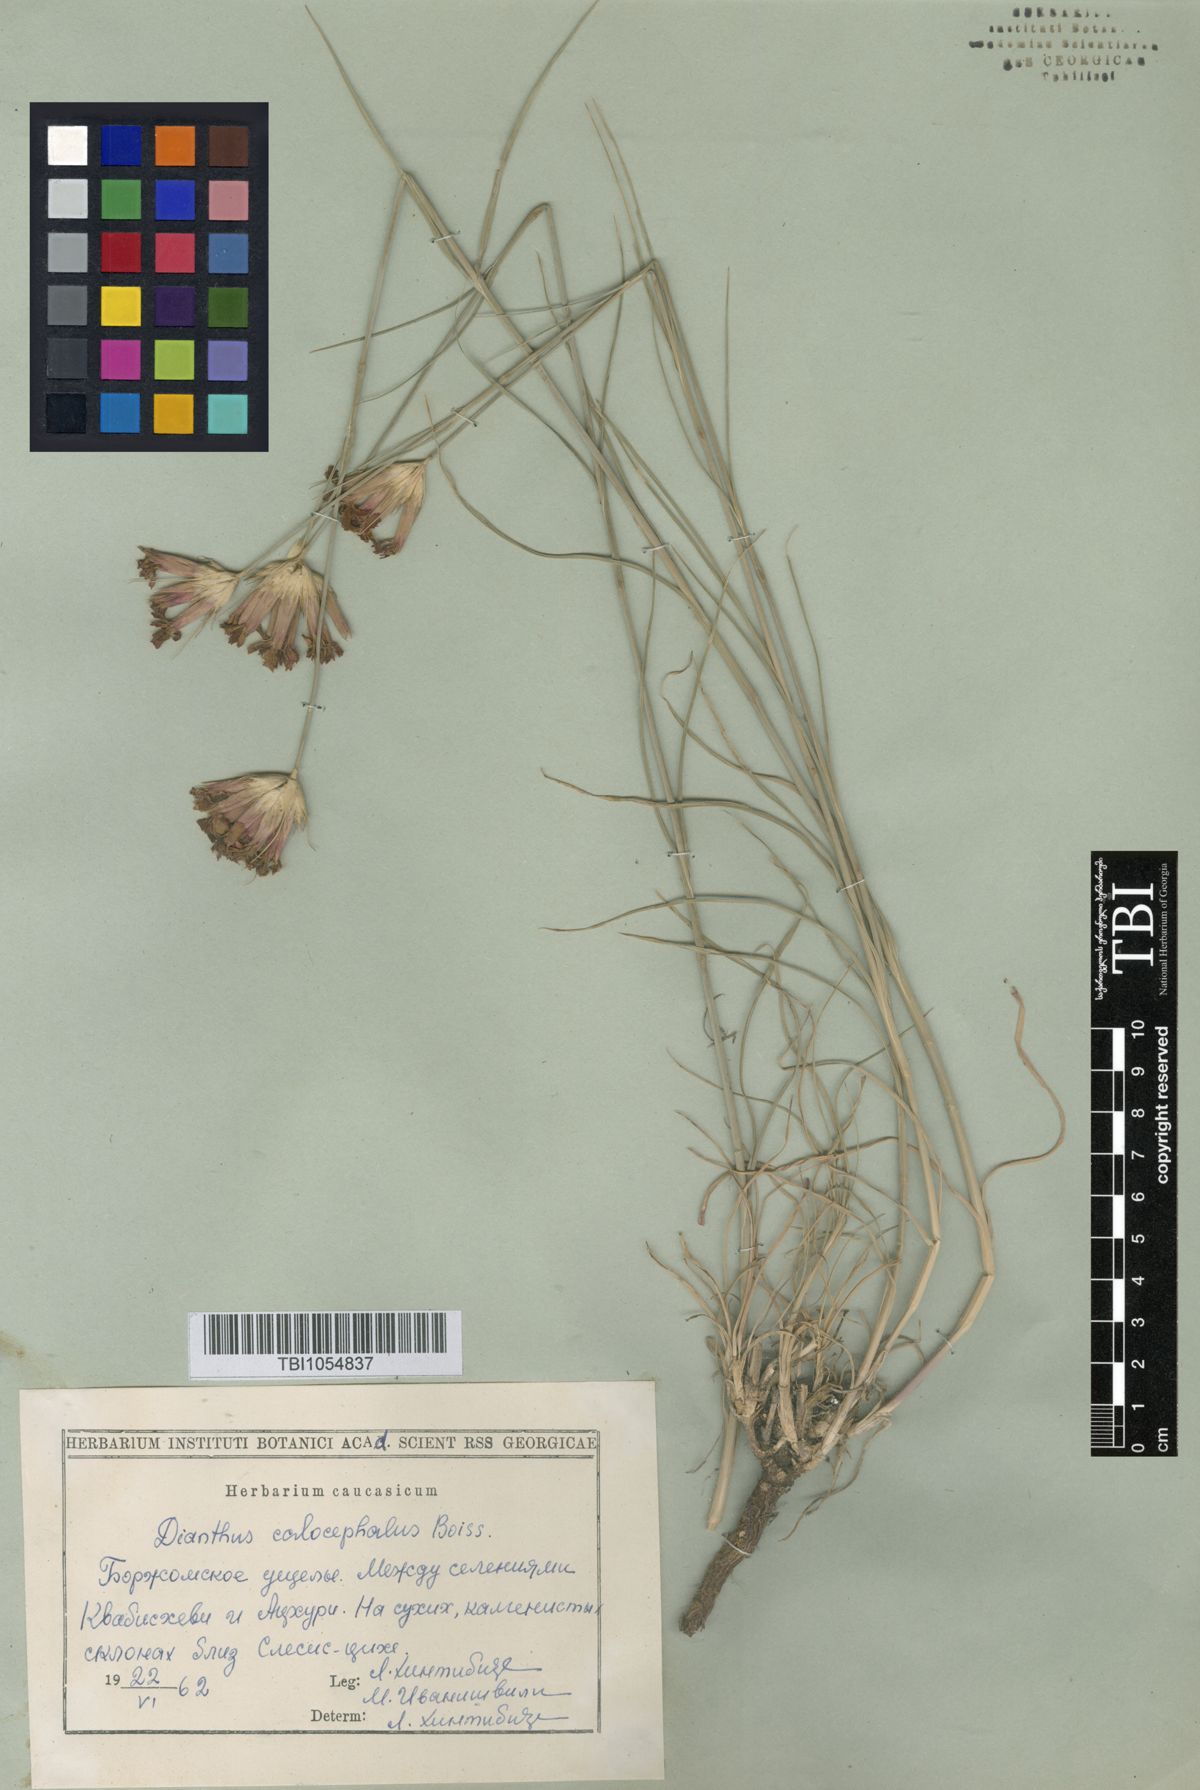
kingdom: Plantae
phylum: Tracheophyta
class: Magnoliopsida
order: Caryophyllales
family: Caryophyllaceae
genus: Dianthus
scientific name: Dianthus cruentus
